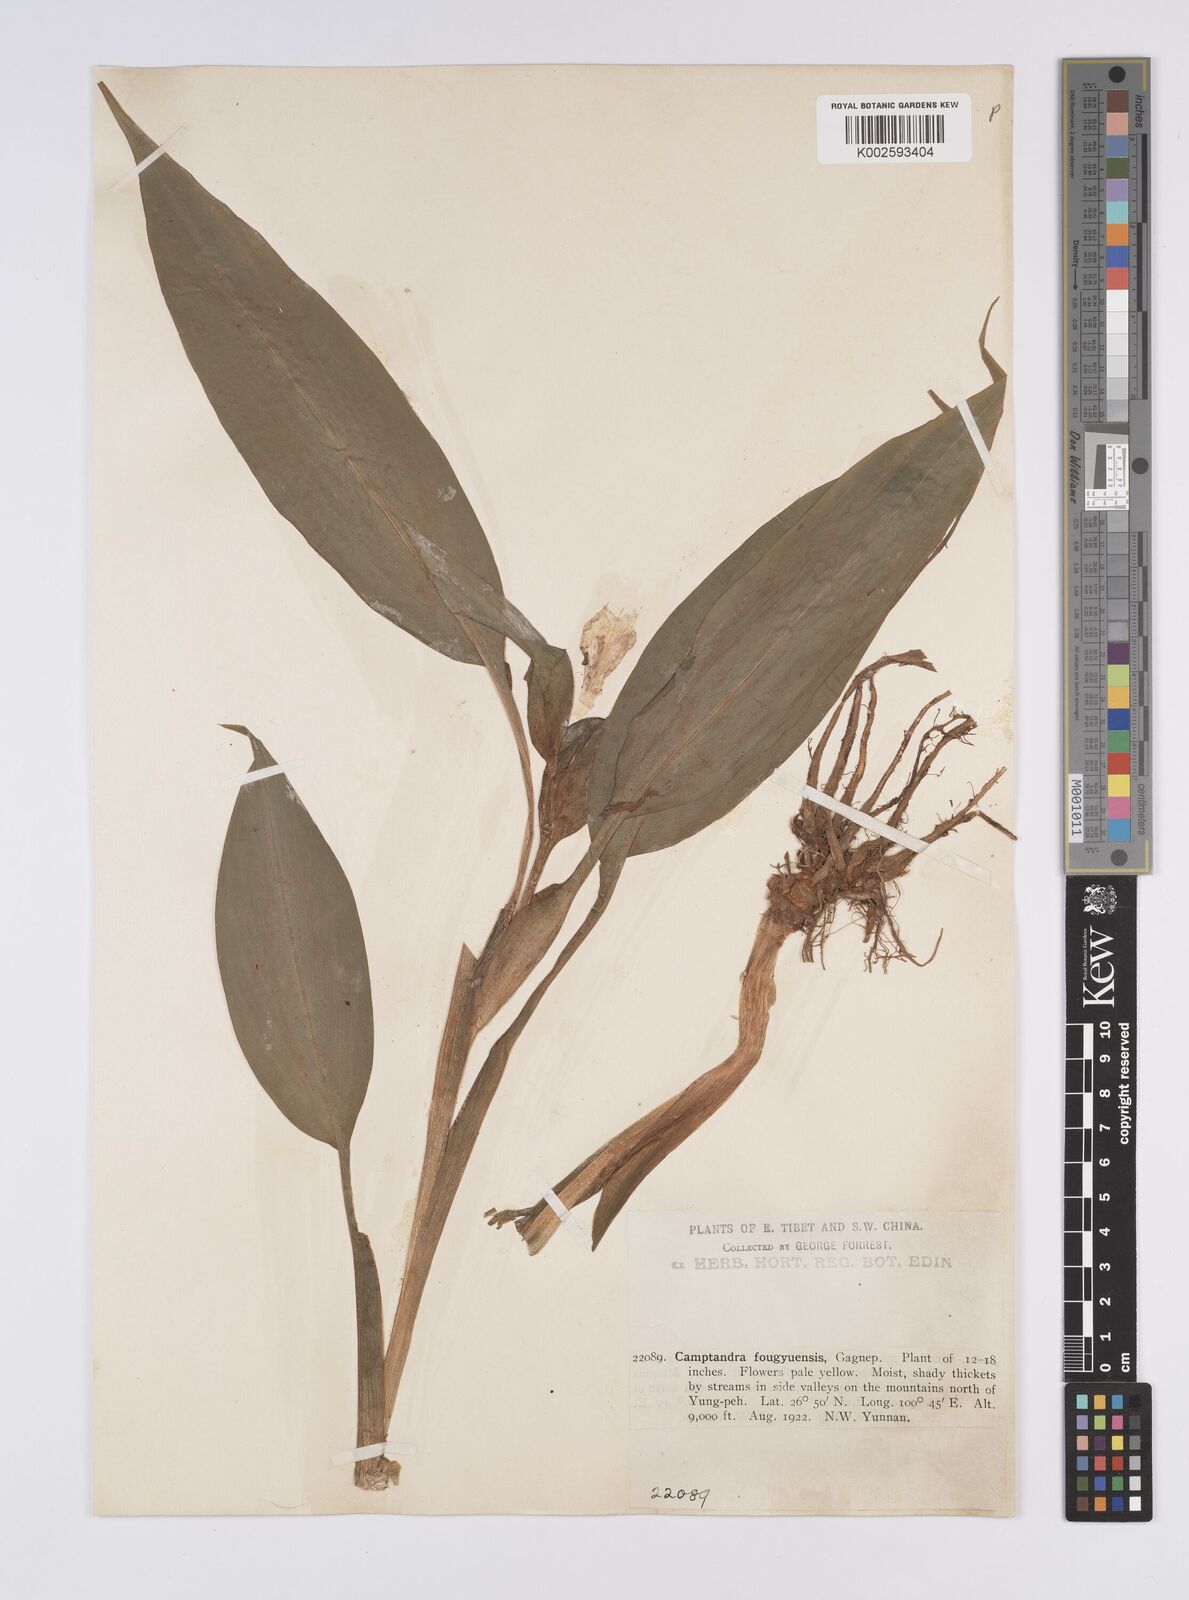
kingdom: Plantae
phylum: Tracheophyta
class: Liliopsida
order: Zingiberales
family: Zingiberaceae
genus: Pyrgophyllum
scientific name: Pyrgophyllum yunnanense
